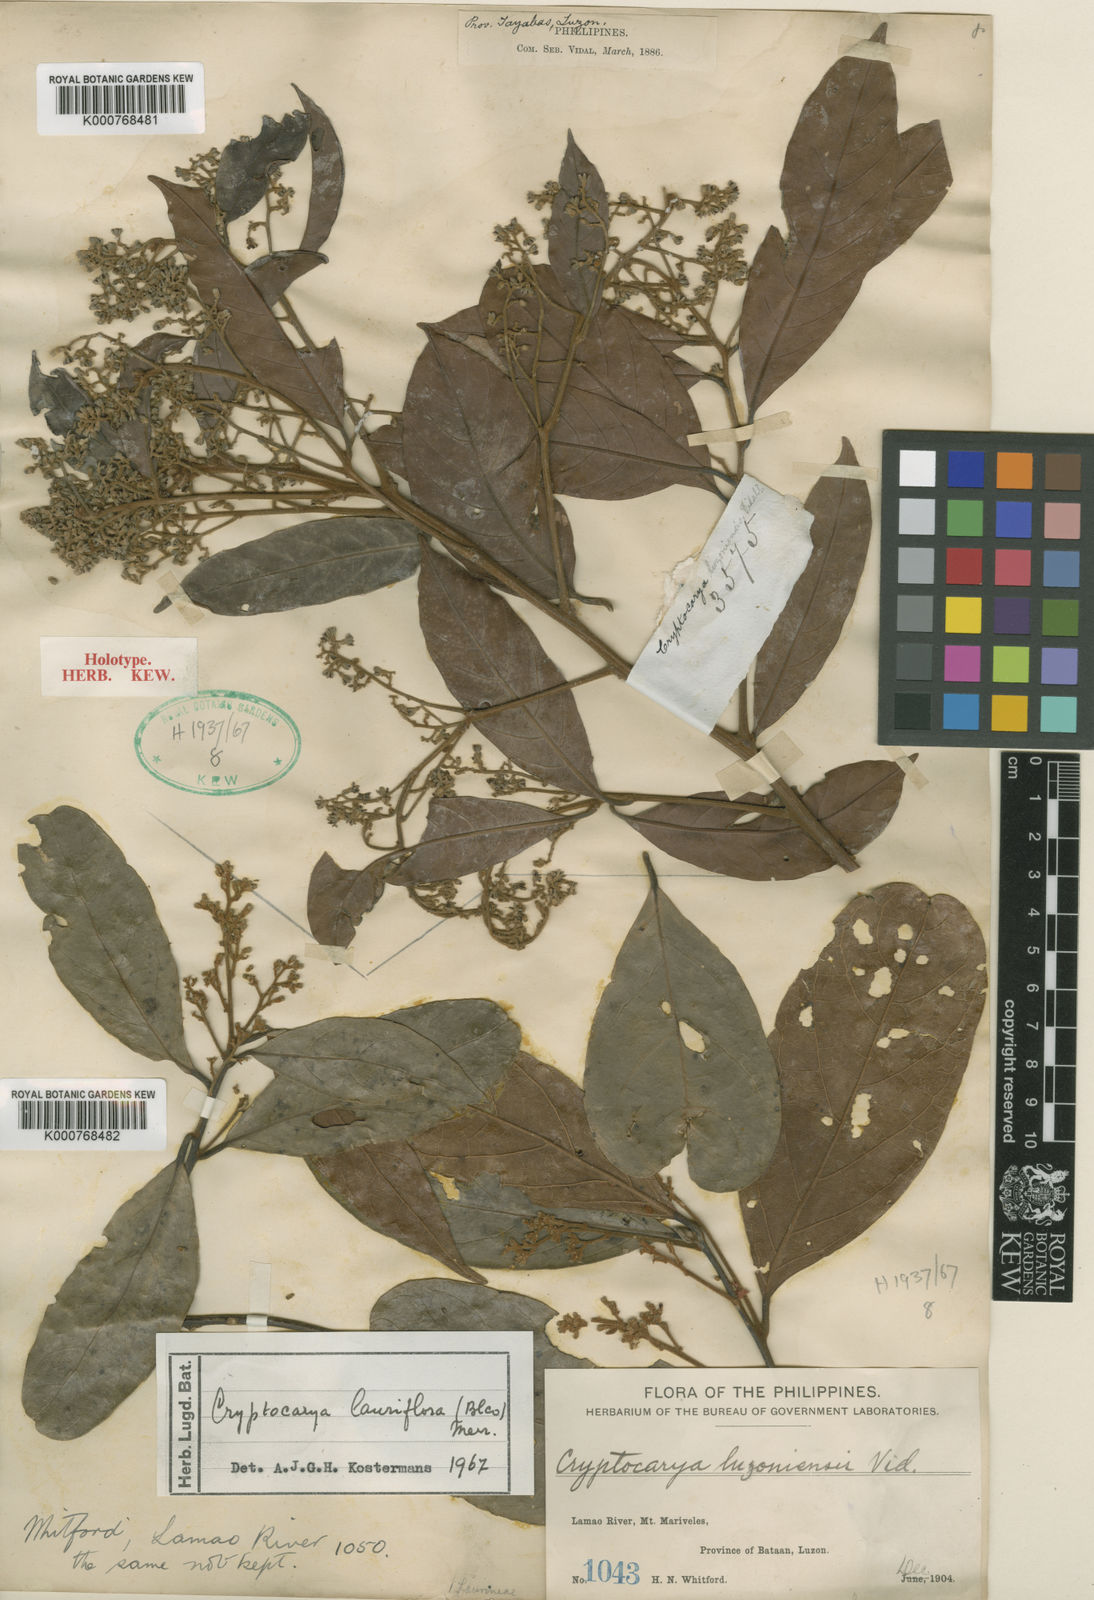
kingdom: Plantae
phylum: Tracheophyta
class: Magnoliopsida
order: Laurales
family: Lauraceae
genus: Cryptocarya
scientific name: Cryptocarya lauriflora
